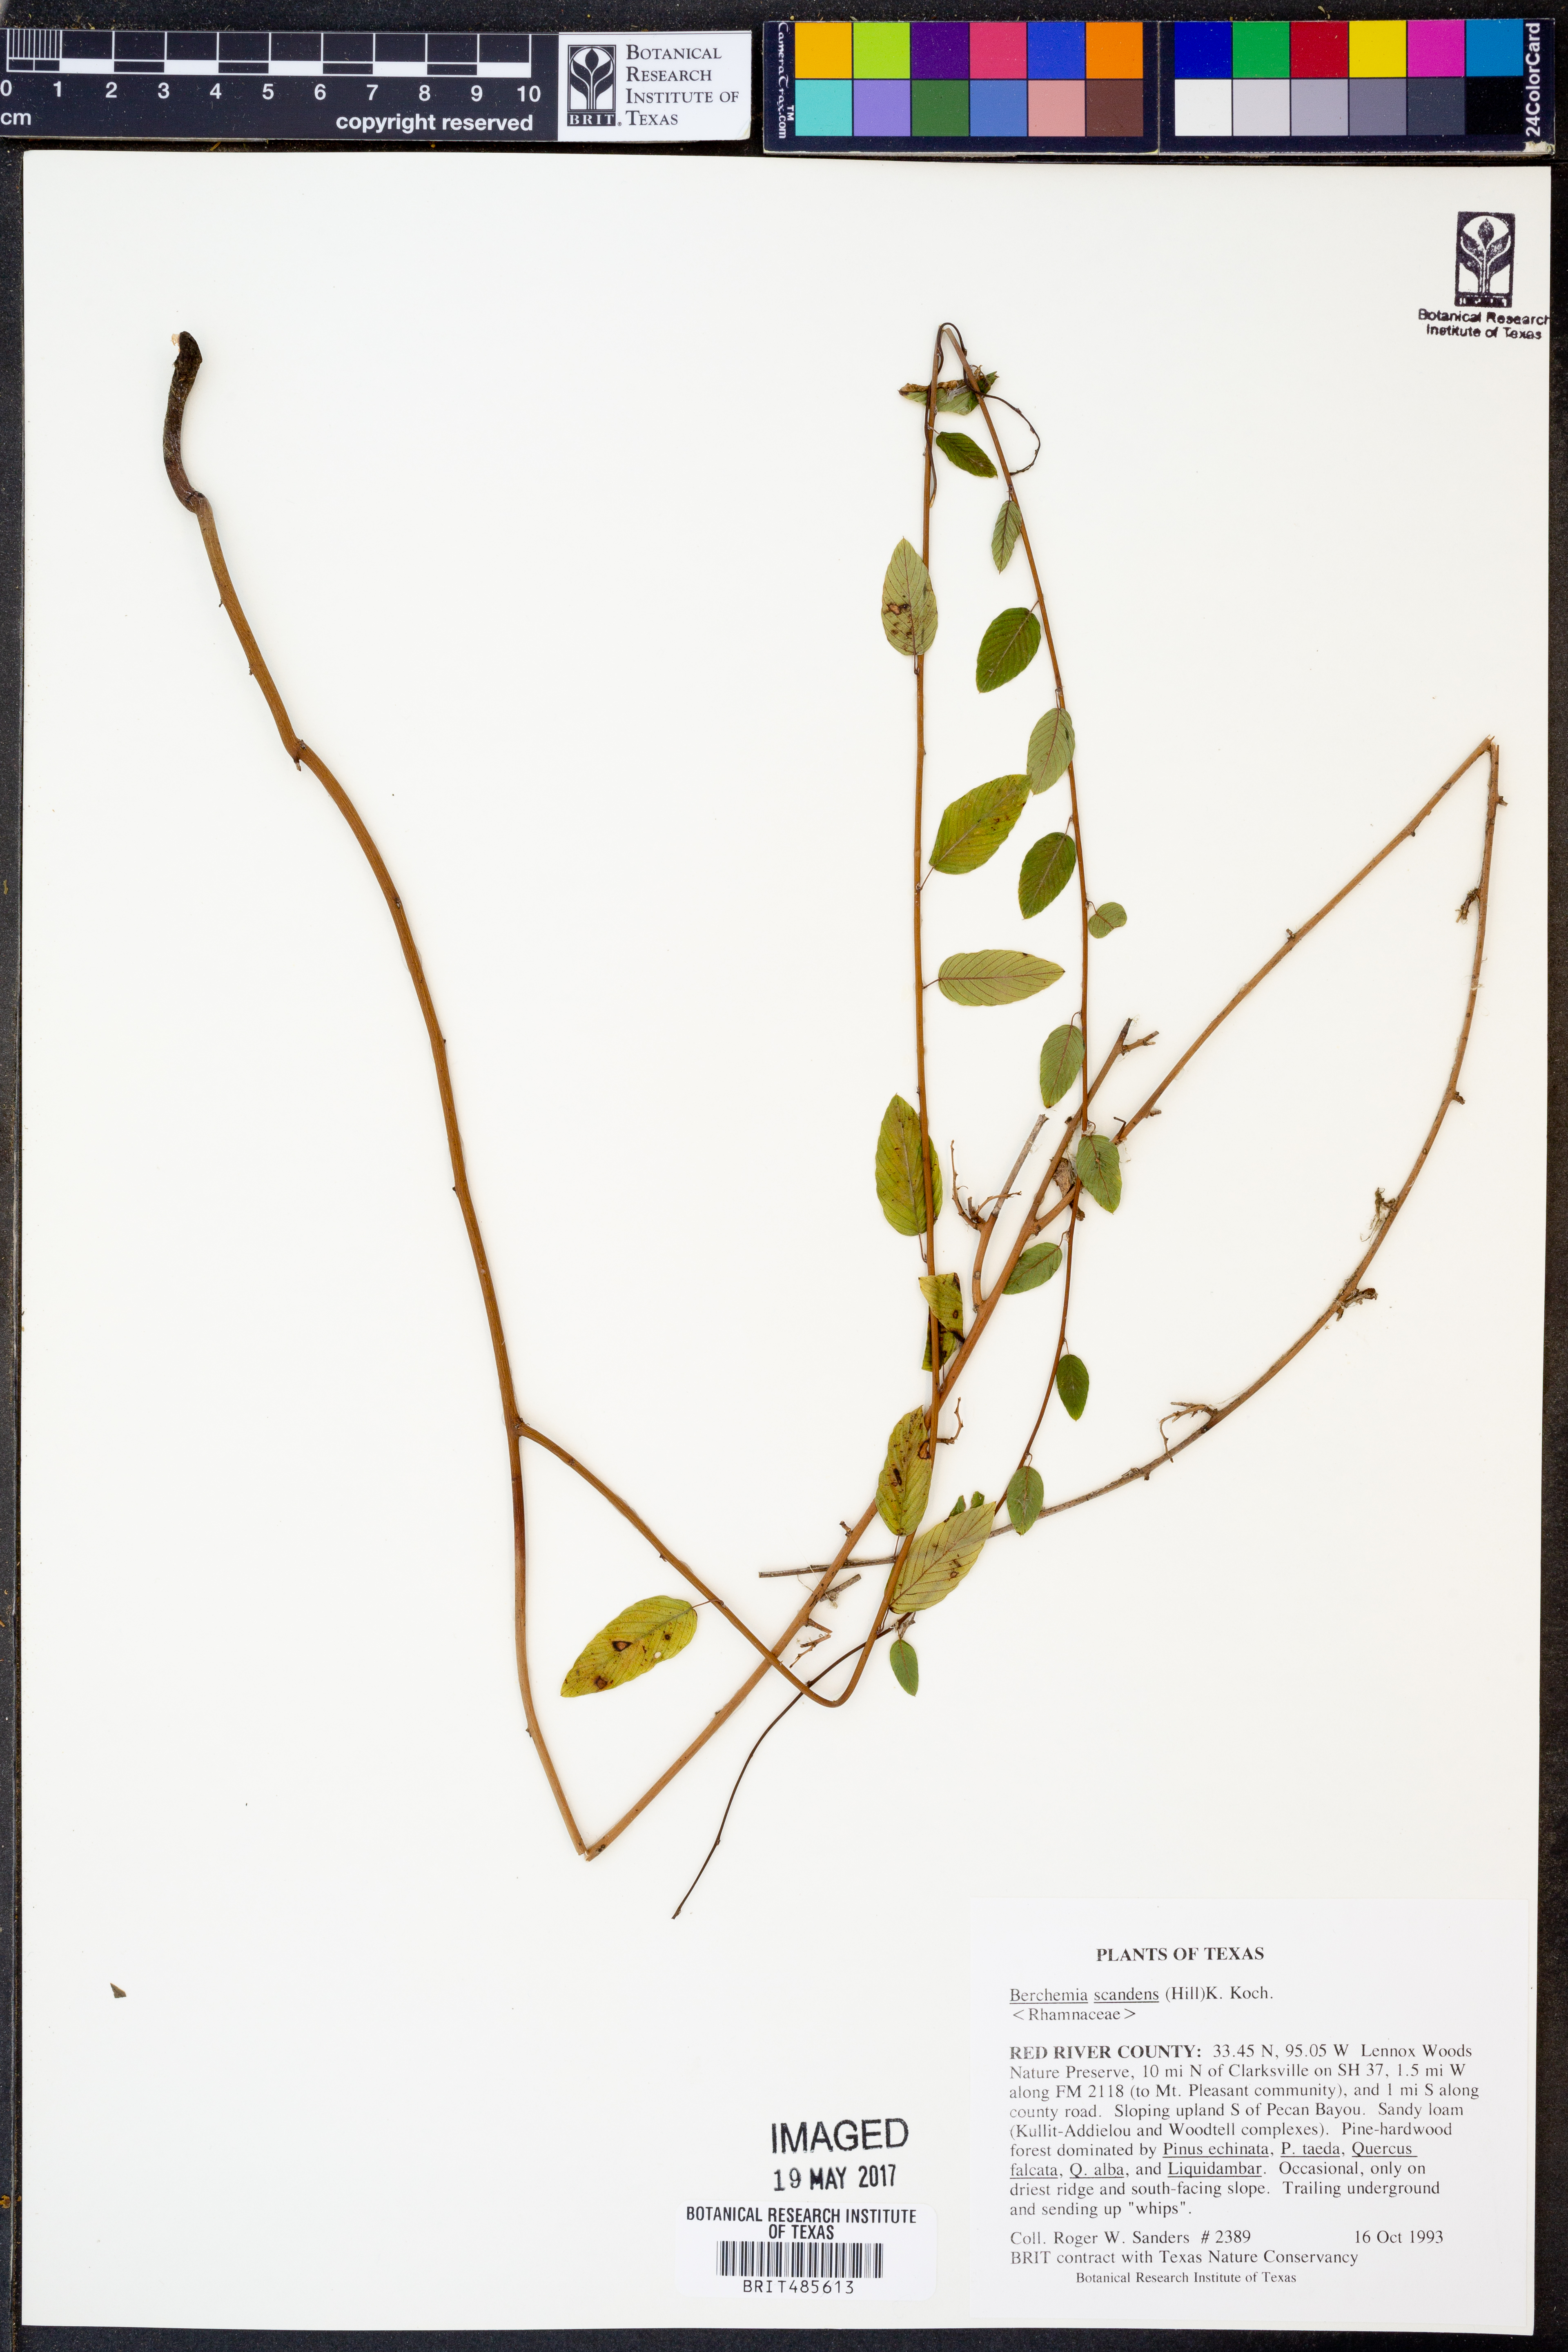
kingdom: Plantae
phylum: Tracheophyta
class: Magnoliopsida
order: Rosales
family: Rhamnaceae
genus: Berchemia
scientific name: Berchemia scandens
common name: Supplejack
